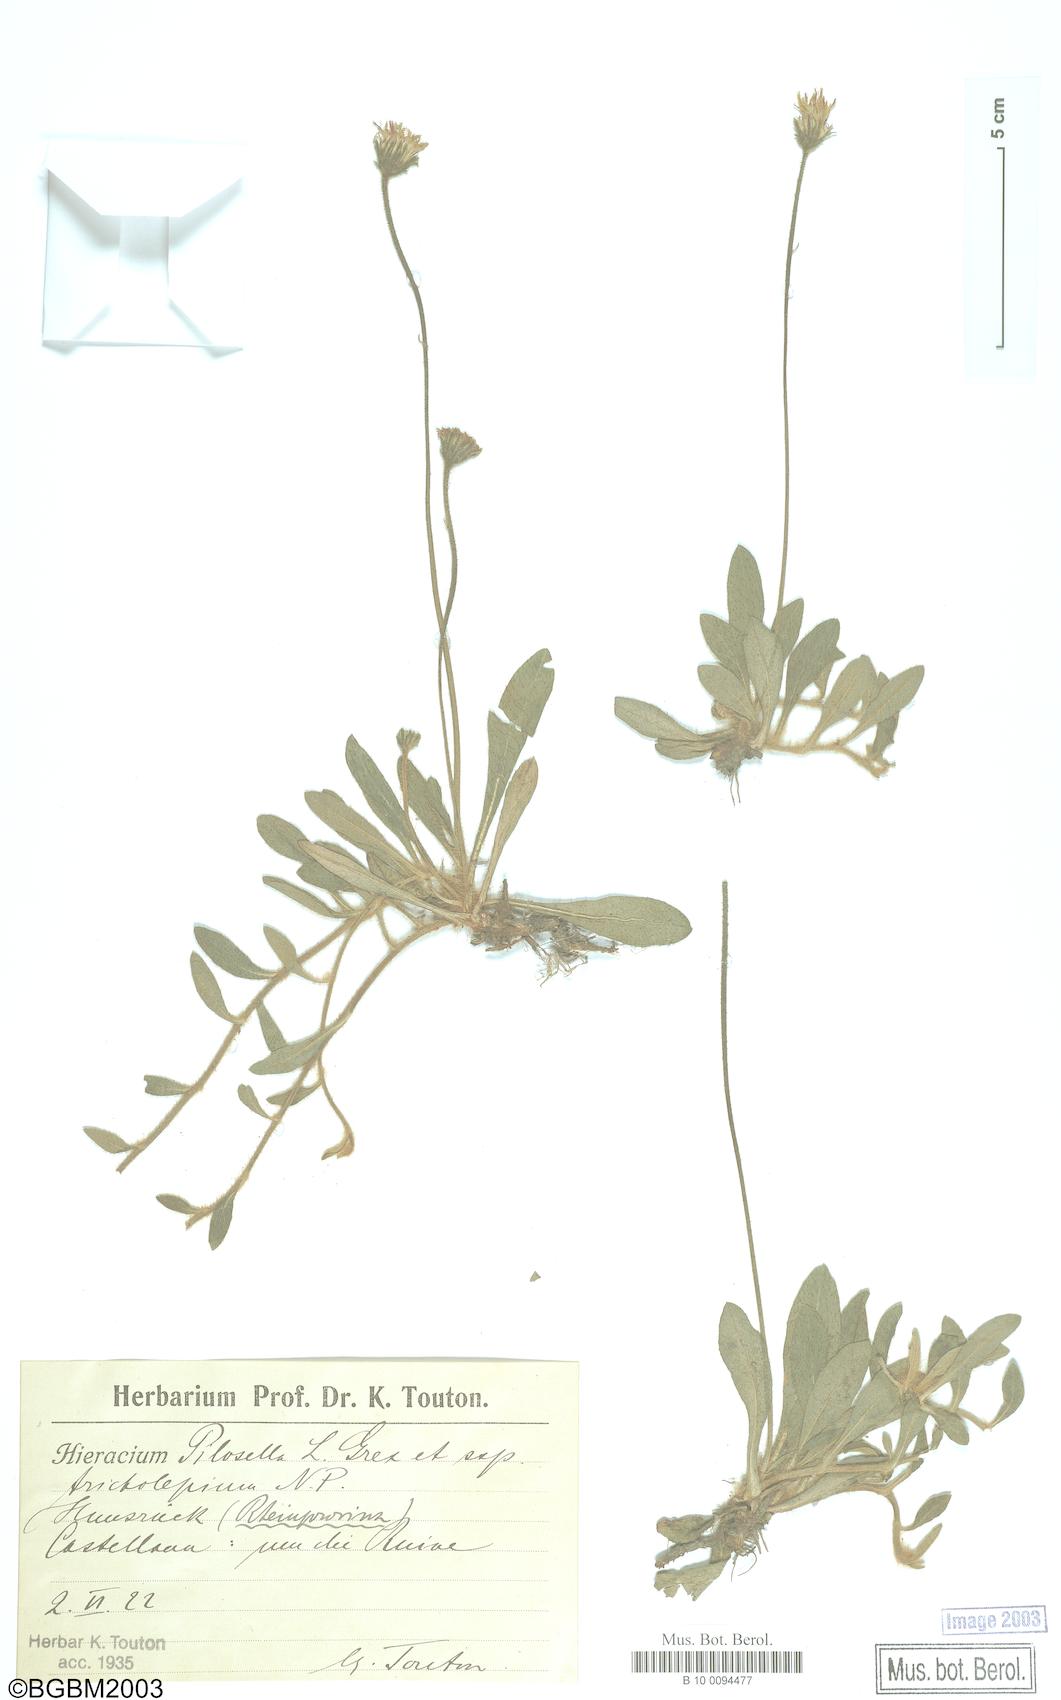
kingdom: Plantae
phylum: Tracheophyta
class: Magnoliopsida
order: Asterales
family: Asteraceae
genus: Pilosella
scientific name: Pilosella officinarum
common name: Mouse-ear hawkweed
